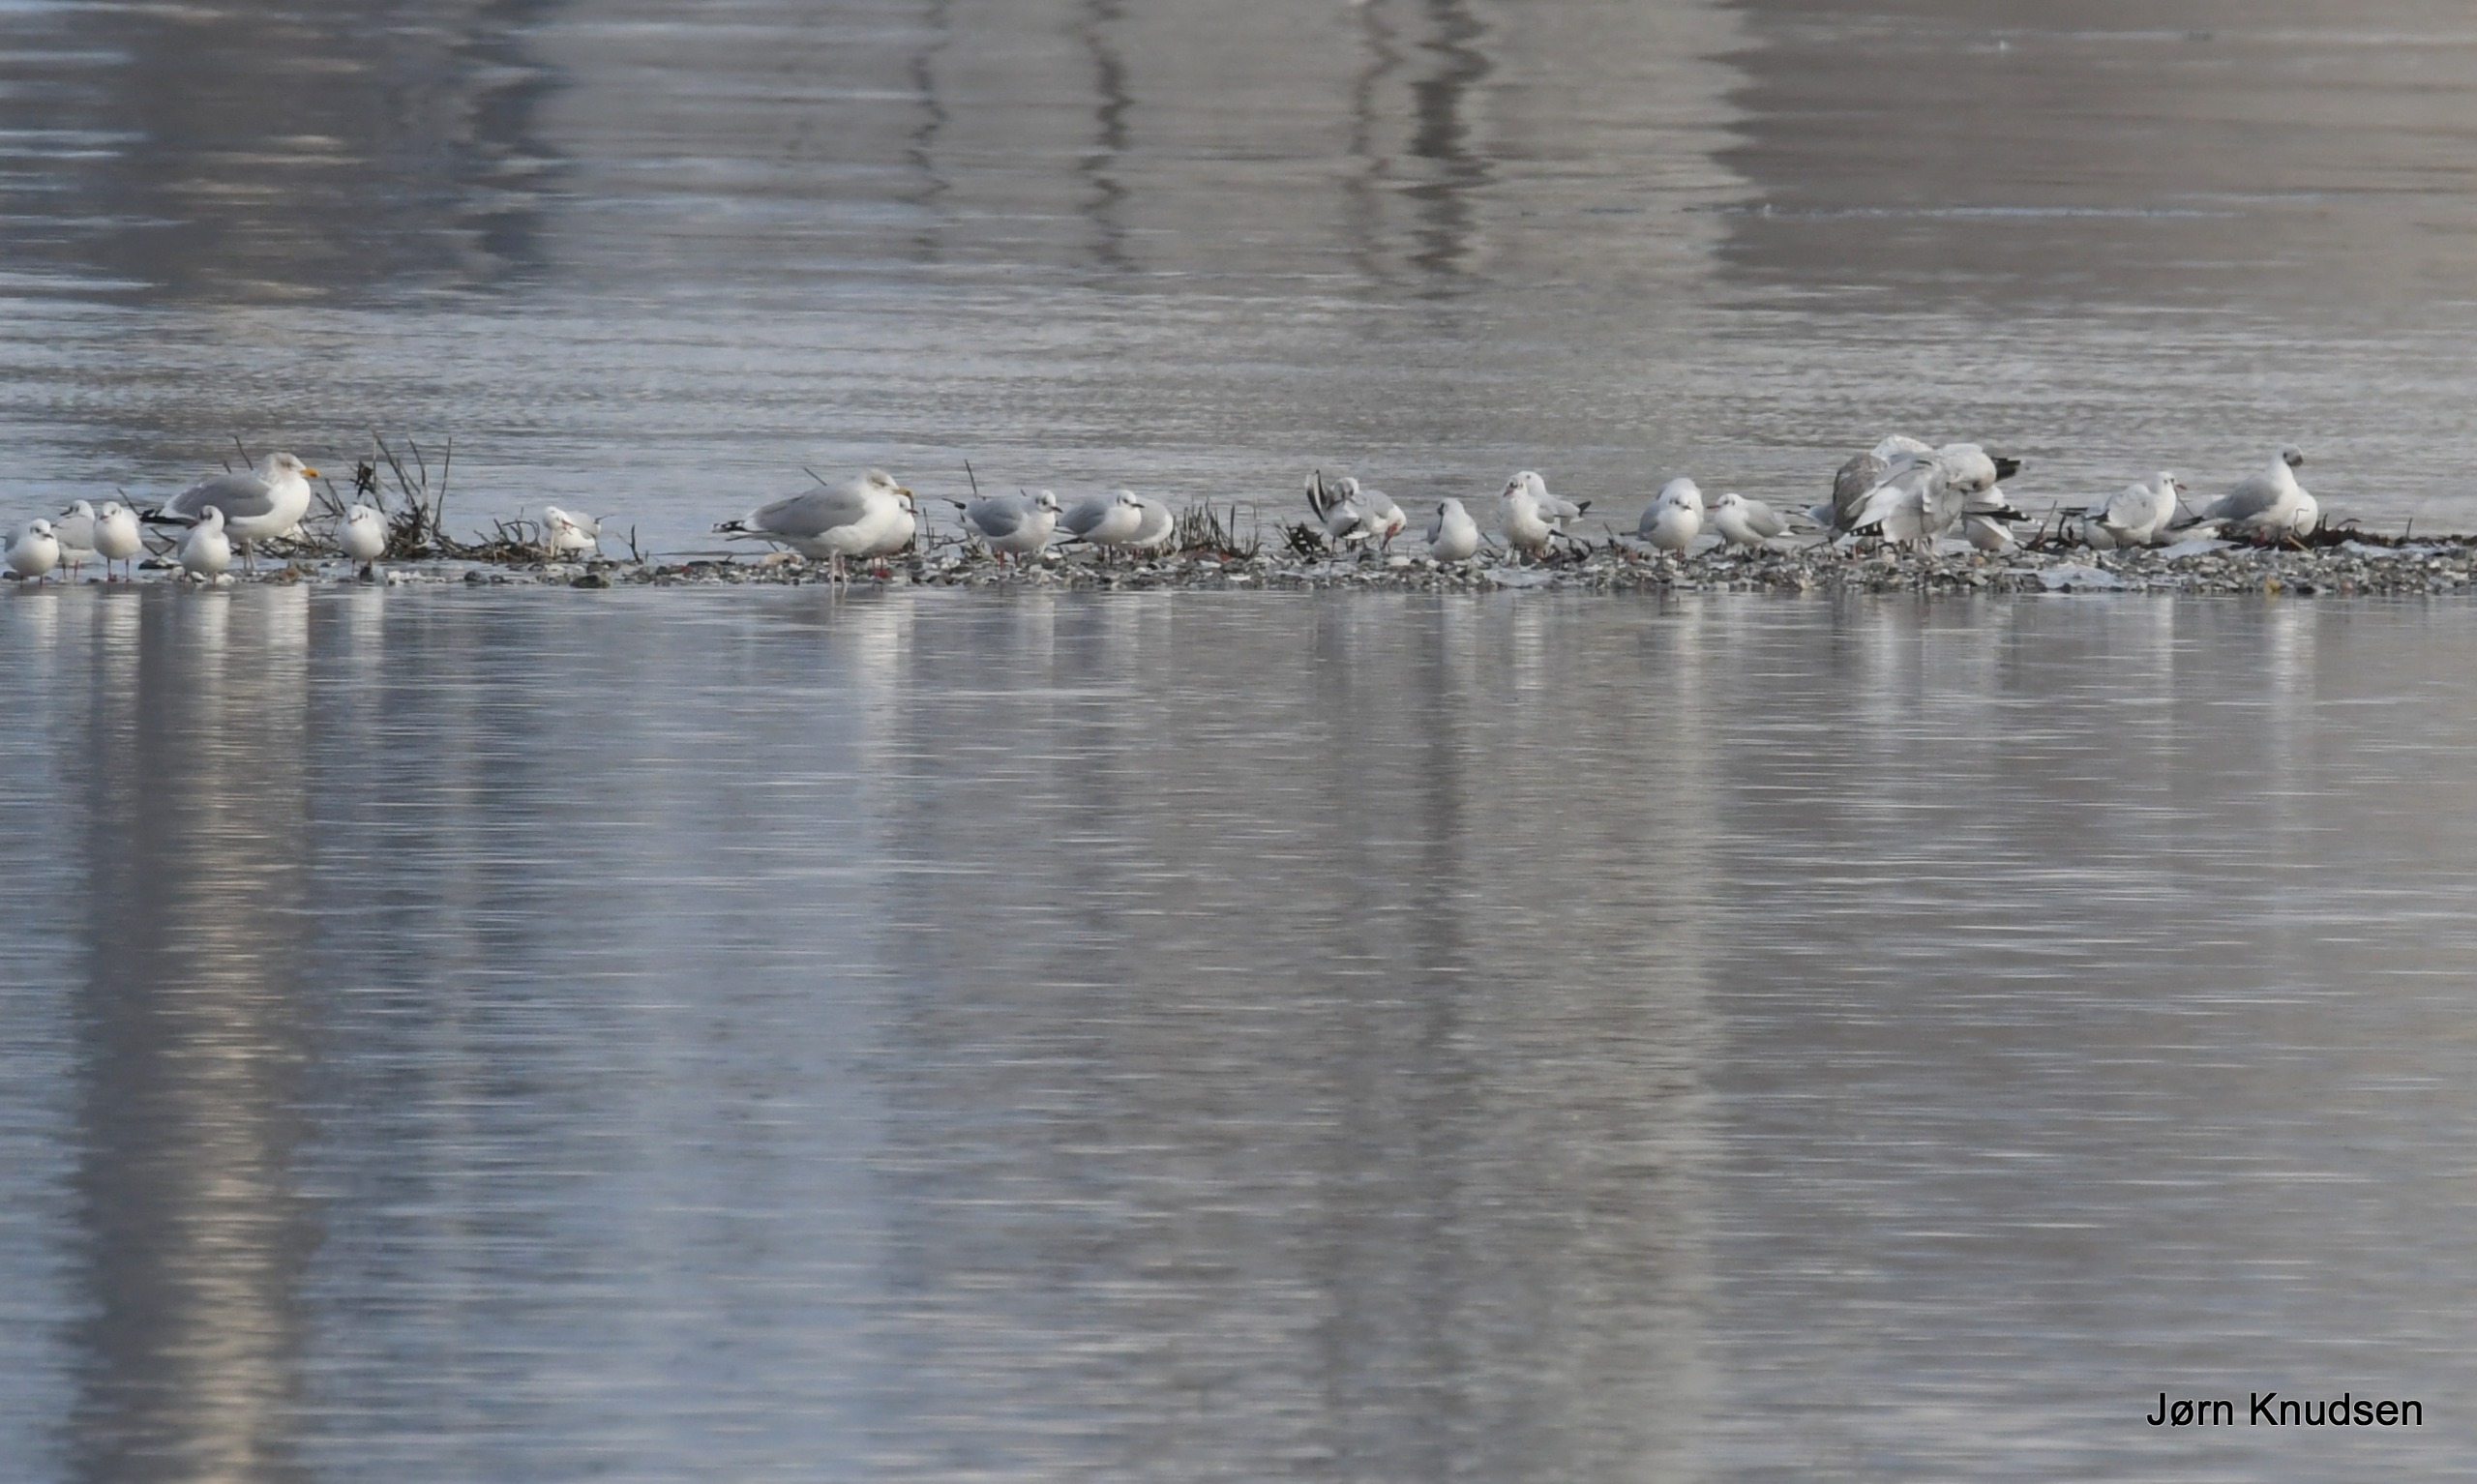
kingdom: Animalia
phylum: Chordata
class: Aves
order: Charadriiformes
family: Laridae
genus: Larus
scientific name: Larus argentatus
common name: Sølvmåge
